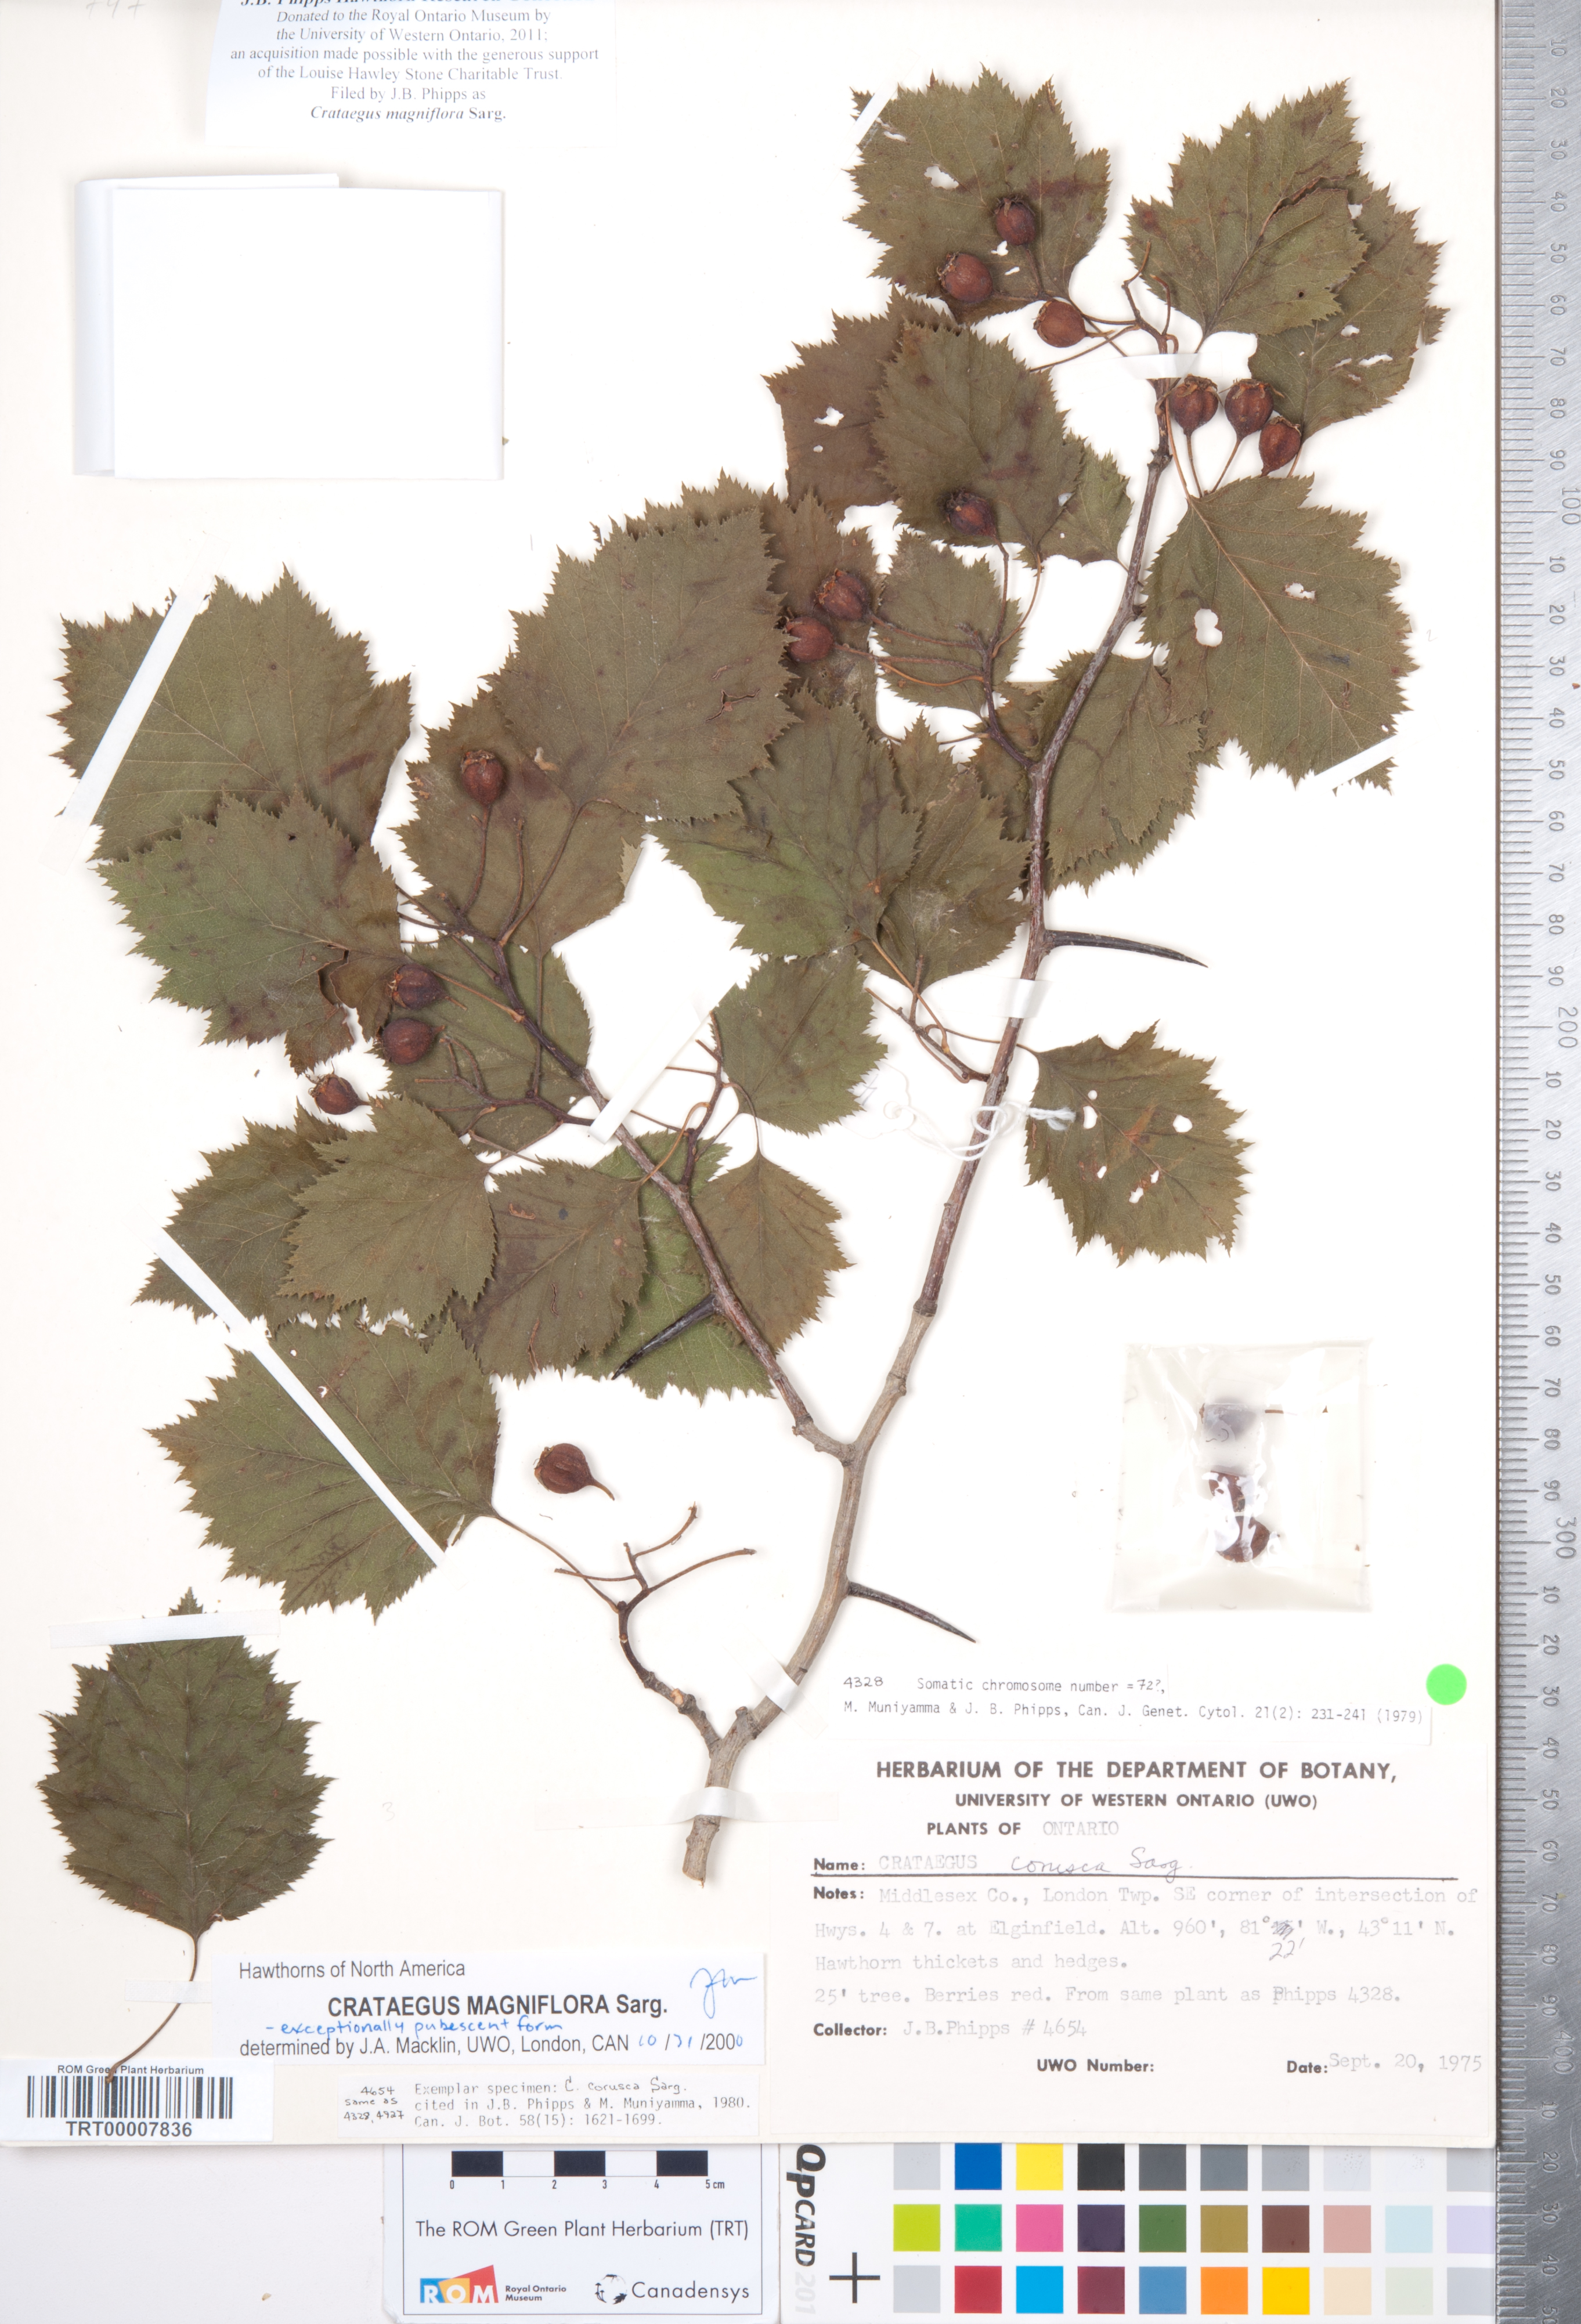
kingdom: Plantae
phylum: Tracheophyta
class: Magnoliopsida
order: Rosales
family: Rosaceae
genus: Crataegus
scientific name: Crataegus magniflora
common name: Gleaming hawthorn
